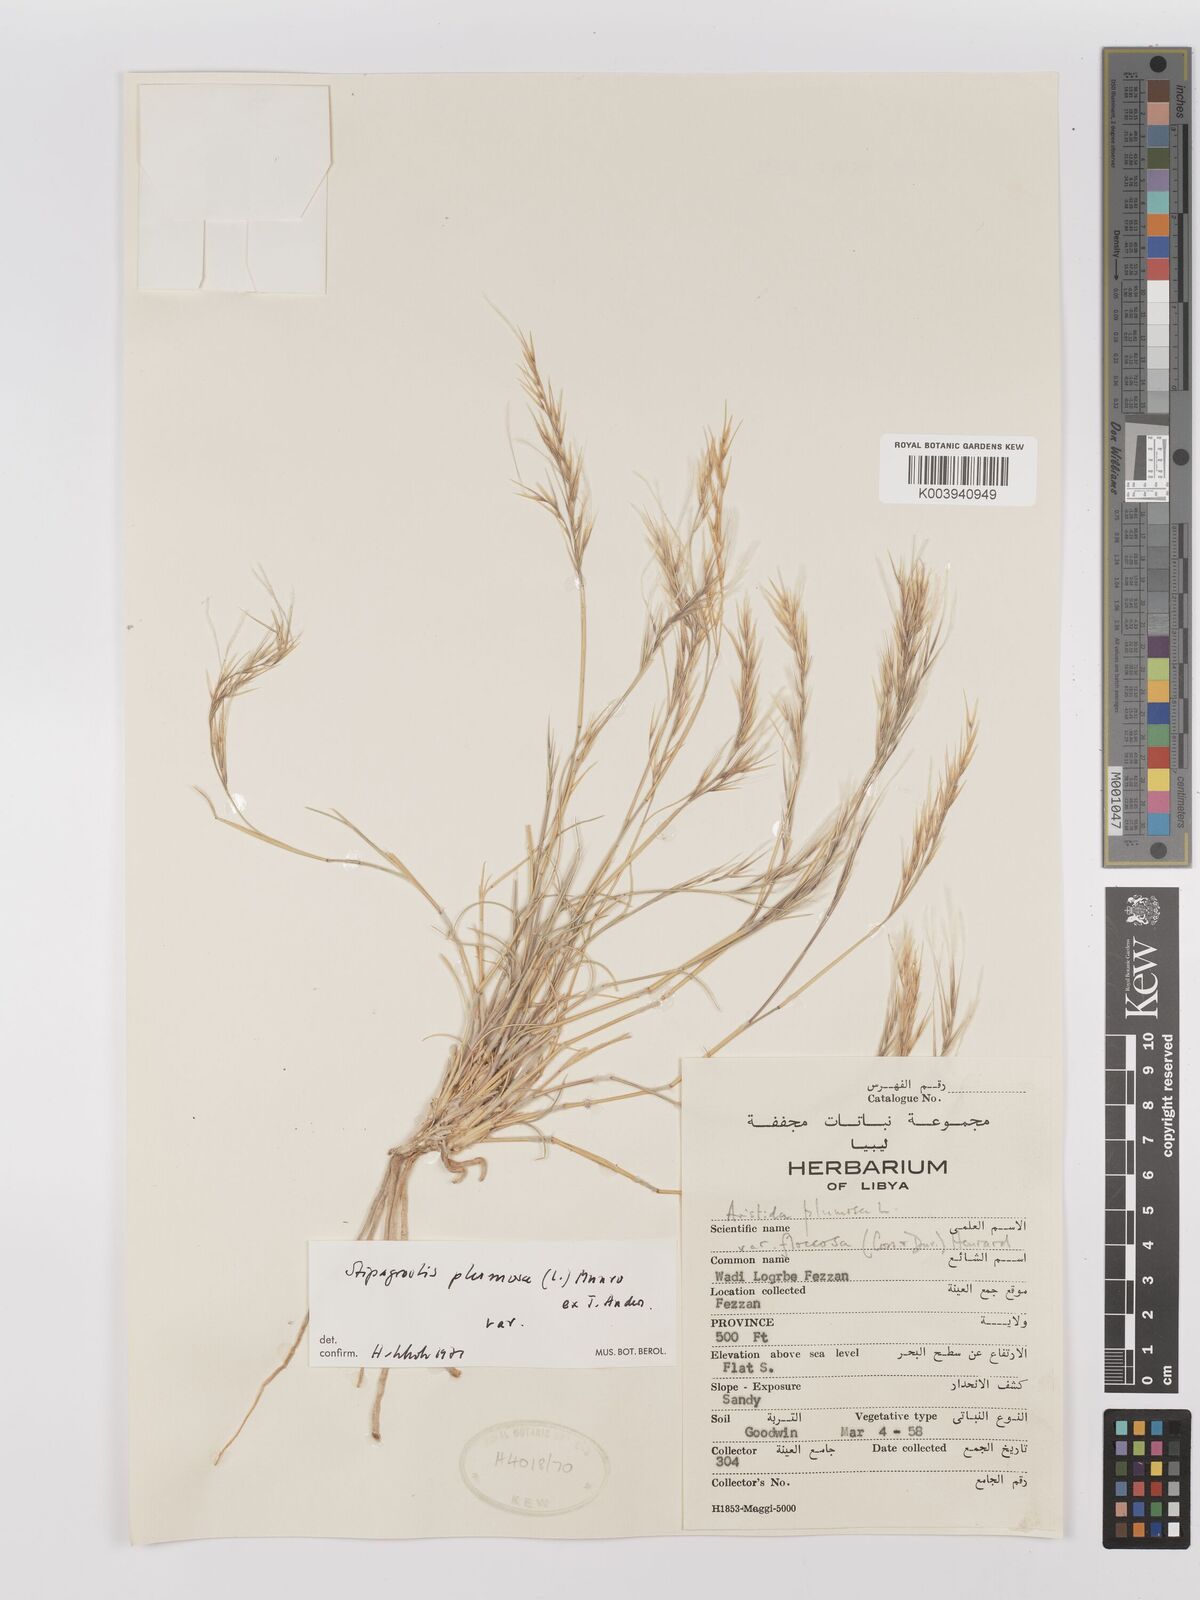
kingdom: Plantae
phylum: Tracheophyta
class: Liliopsida
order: Poales
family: Poaceae
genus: Stipagrostis
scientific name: Stipagrostis plumosa
